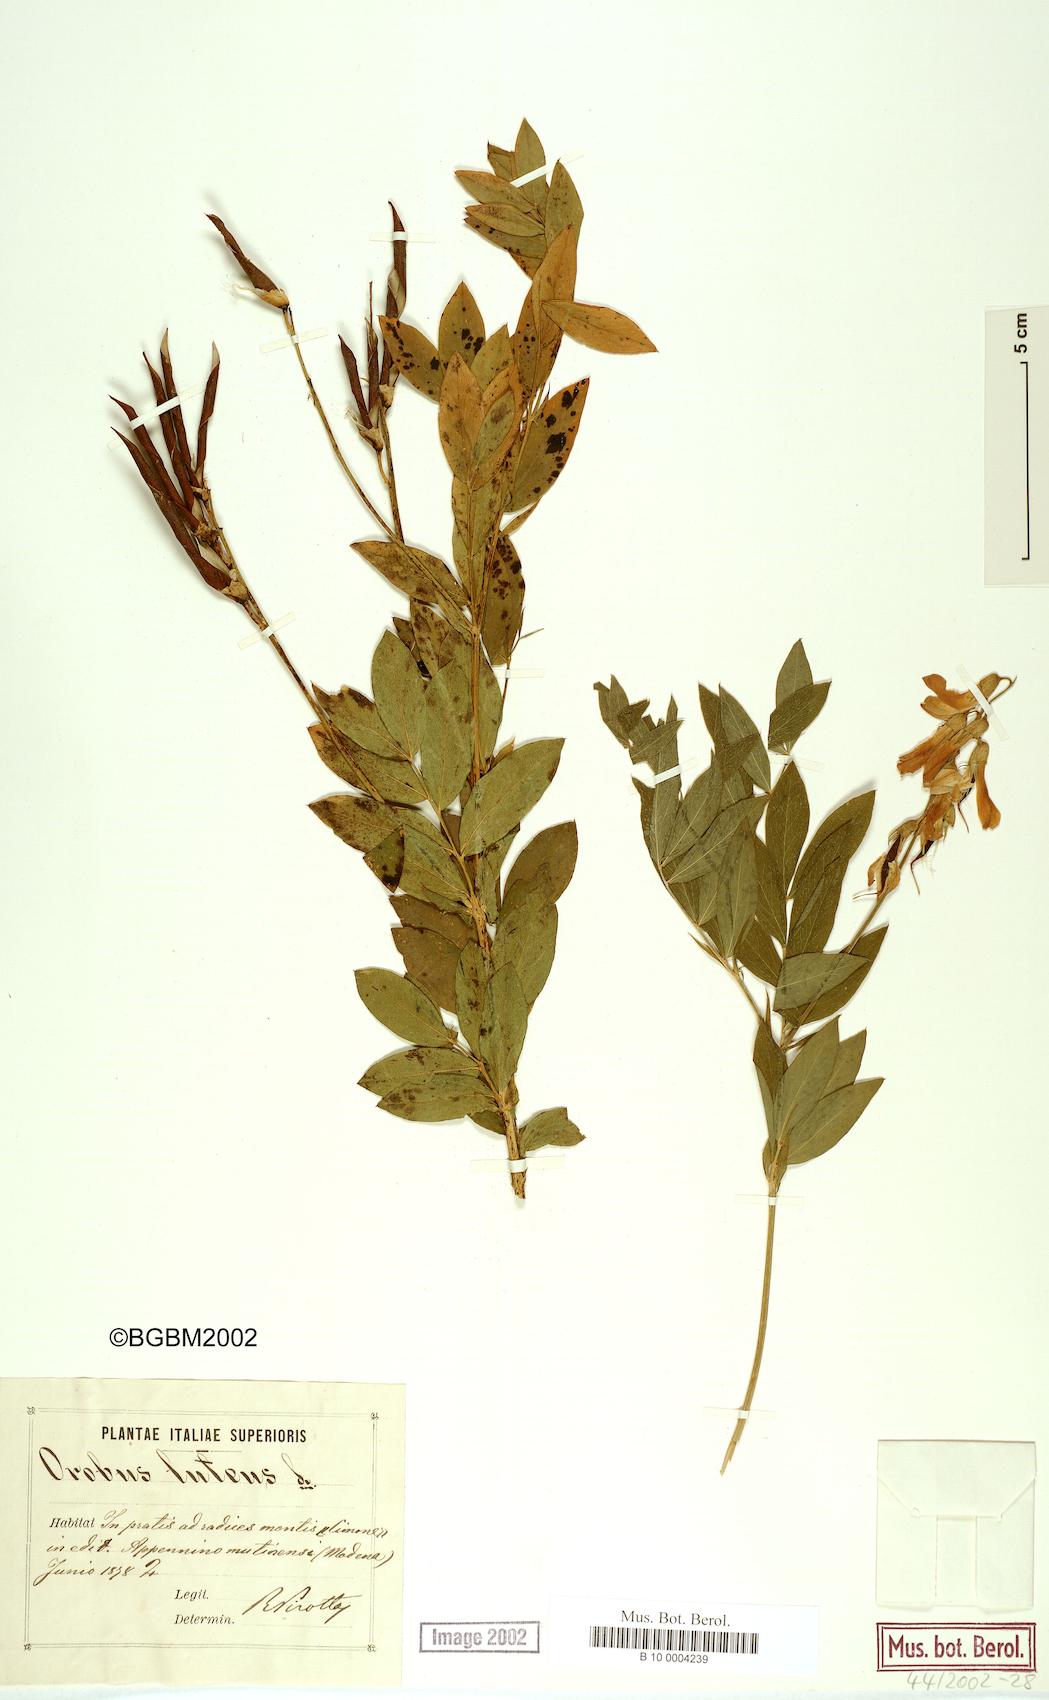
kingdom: Plantae
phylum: Tracheophyta
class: Magnoliopsida
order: Fabales
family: Fabaceae
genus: Lathyrus
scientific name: Lathyrus gmelinii
